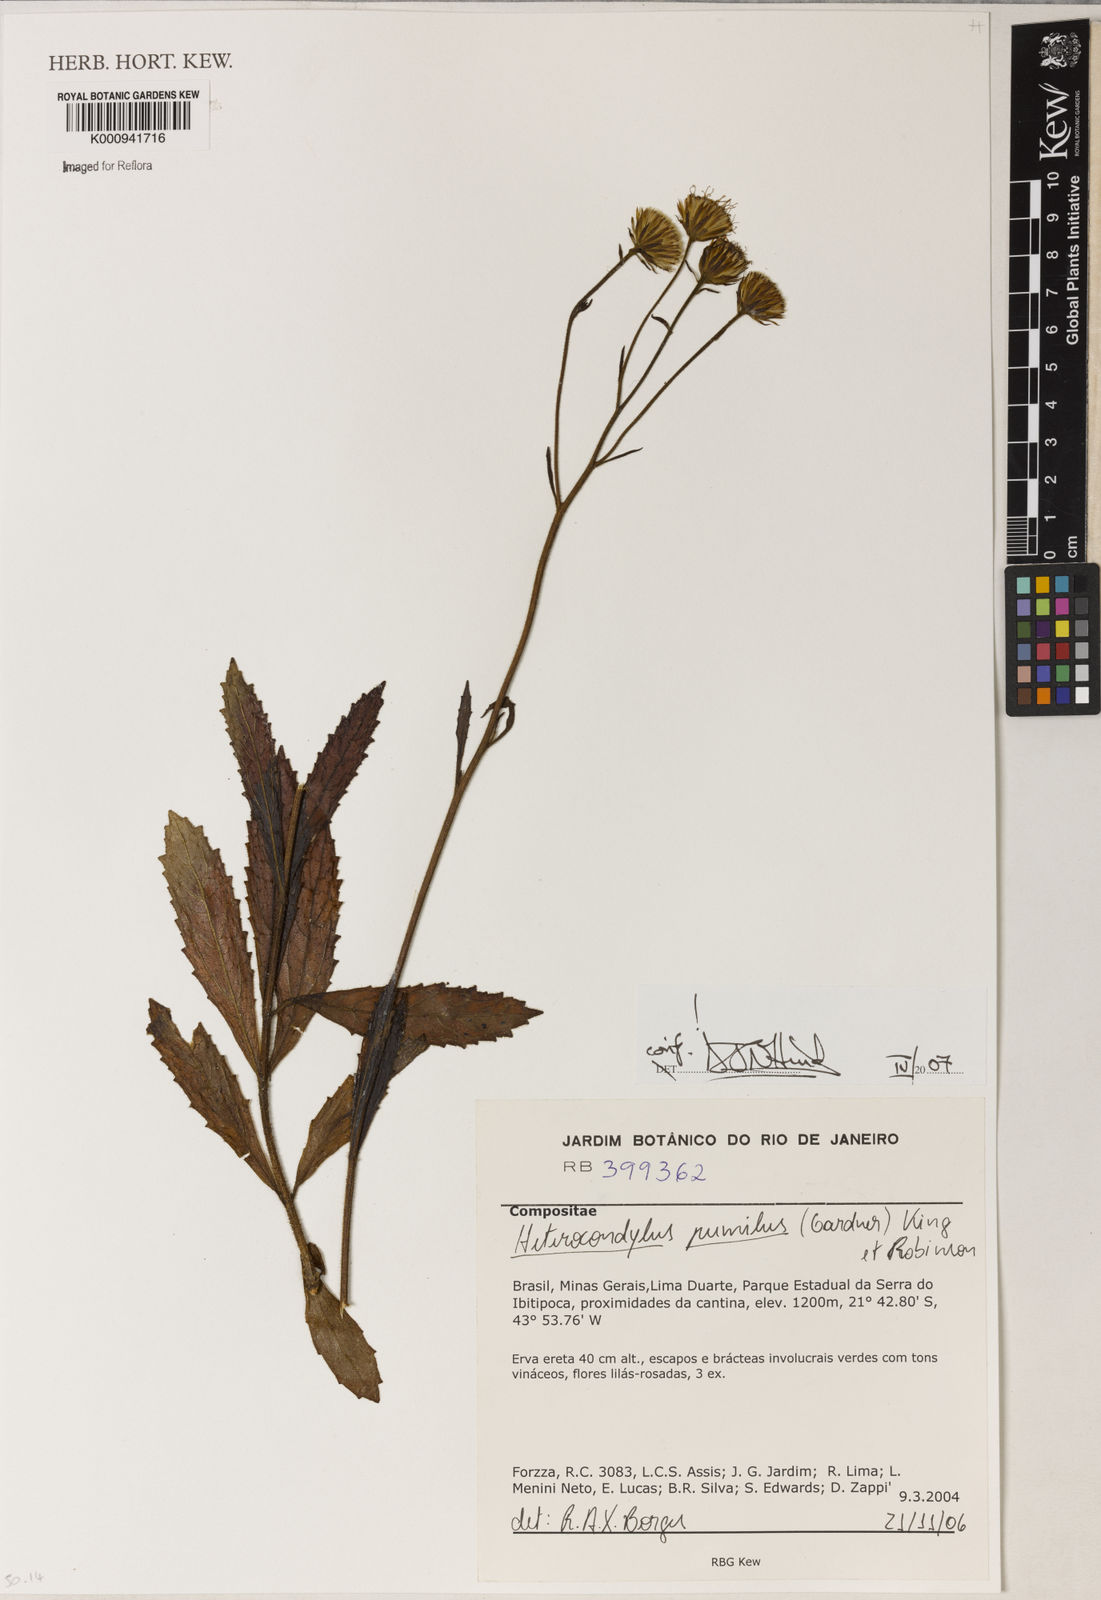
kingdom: Plantae
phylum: Tracheophyta
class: Magnoliopsida
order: Asterales
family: Asteraceae
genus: Heterocondylus
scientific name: Heterocondylus pumilus
